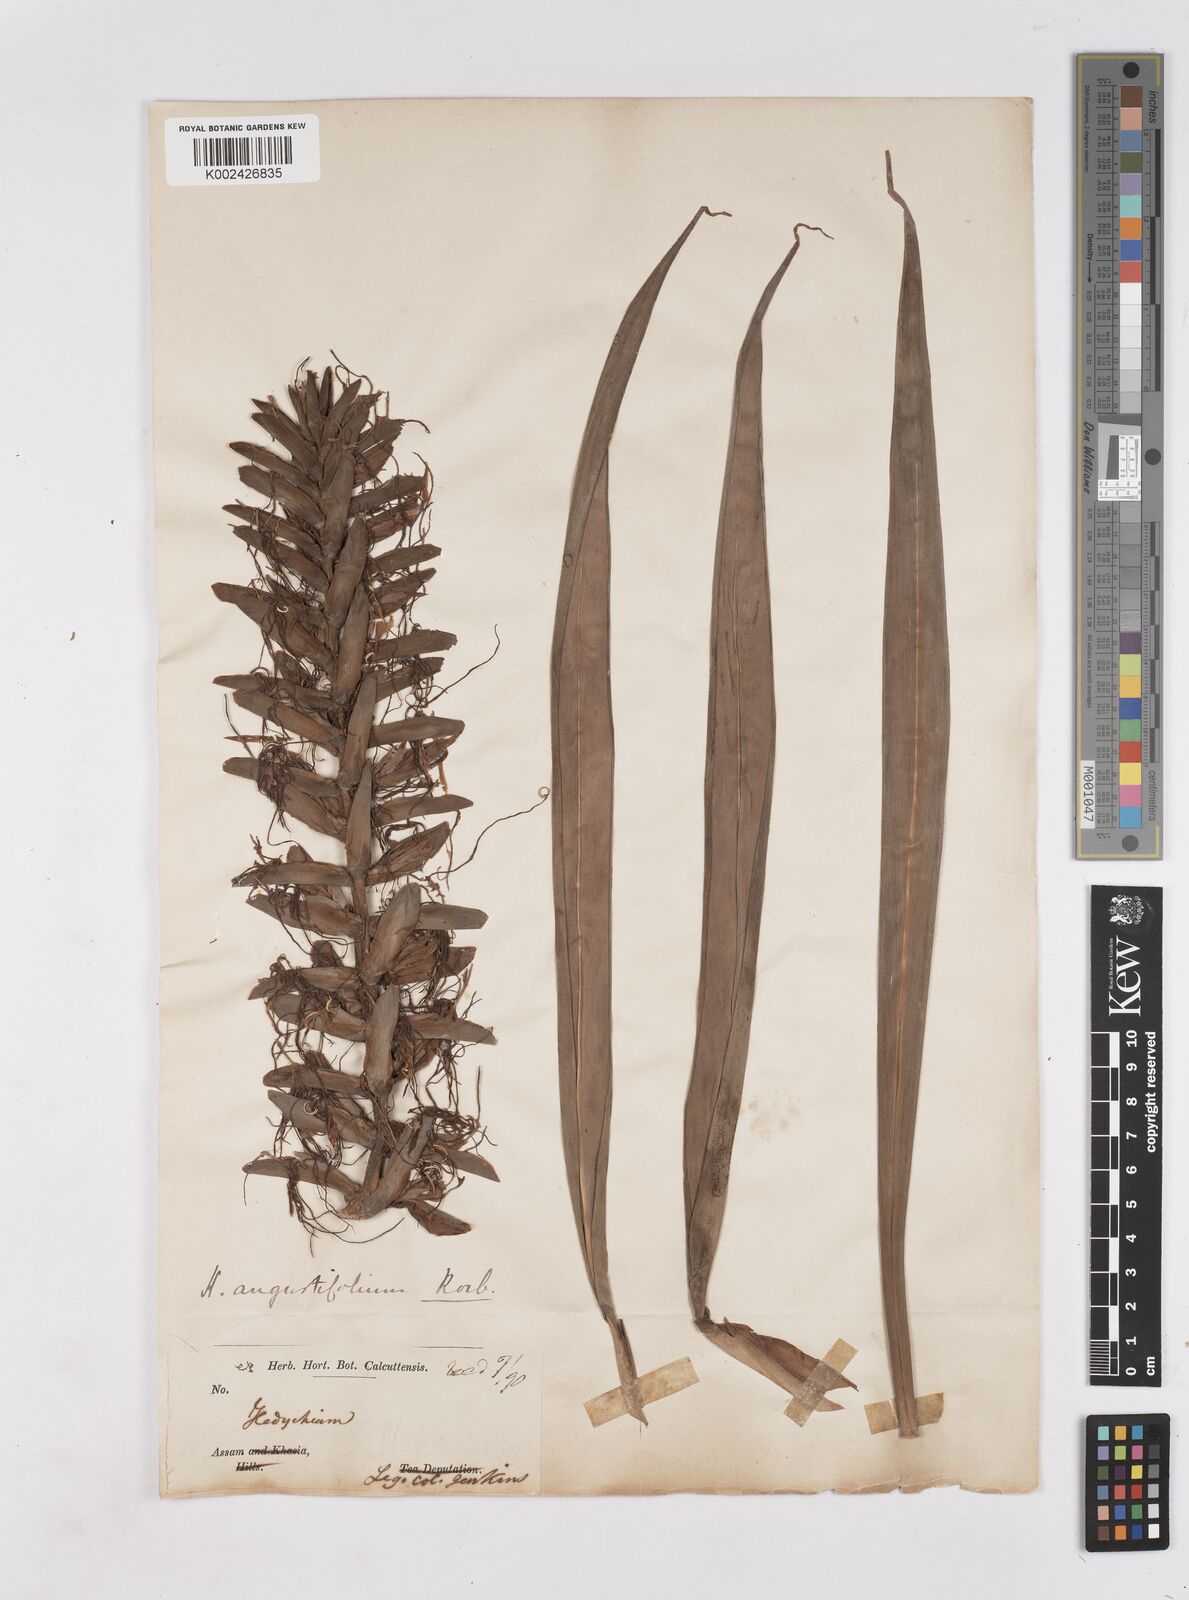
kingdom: Plantae
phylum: Tracheophyta
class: Liliopsida
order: Zingiberales
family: Zingiberaceae
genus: Hedychium
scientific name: Hedychium coccineum
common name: Red ginger-lily
